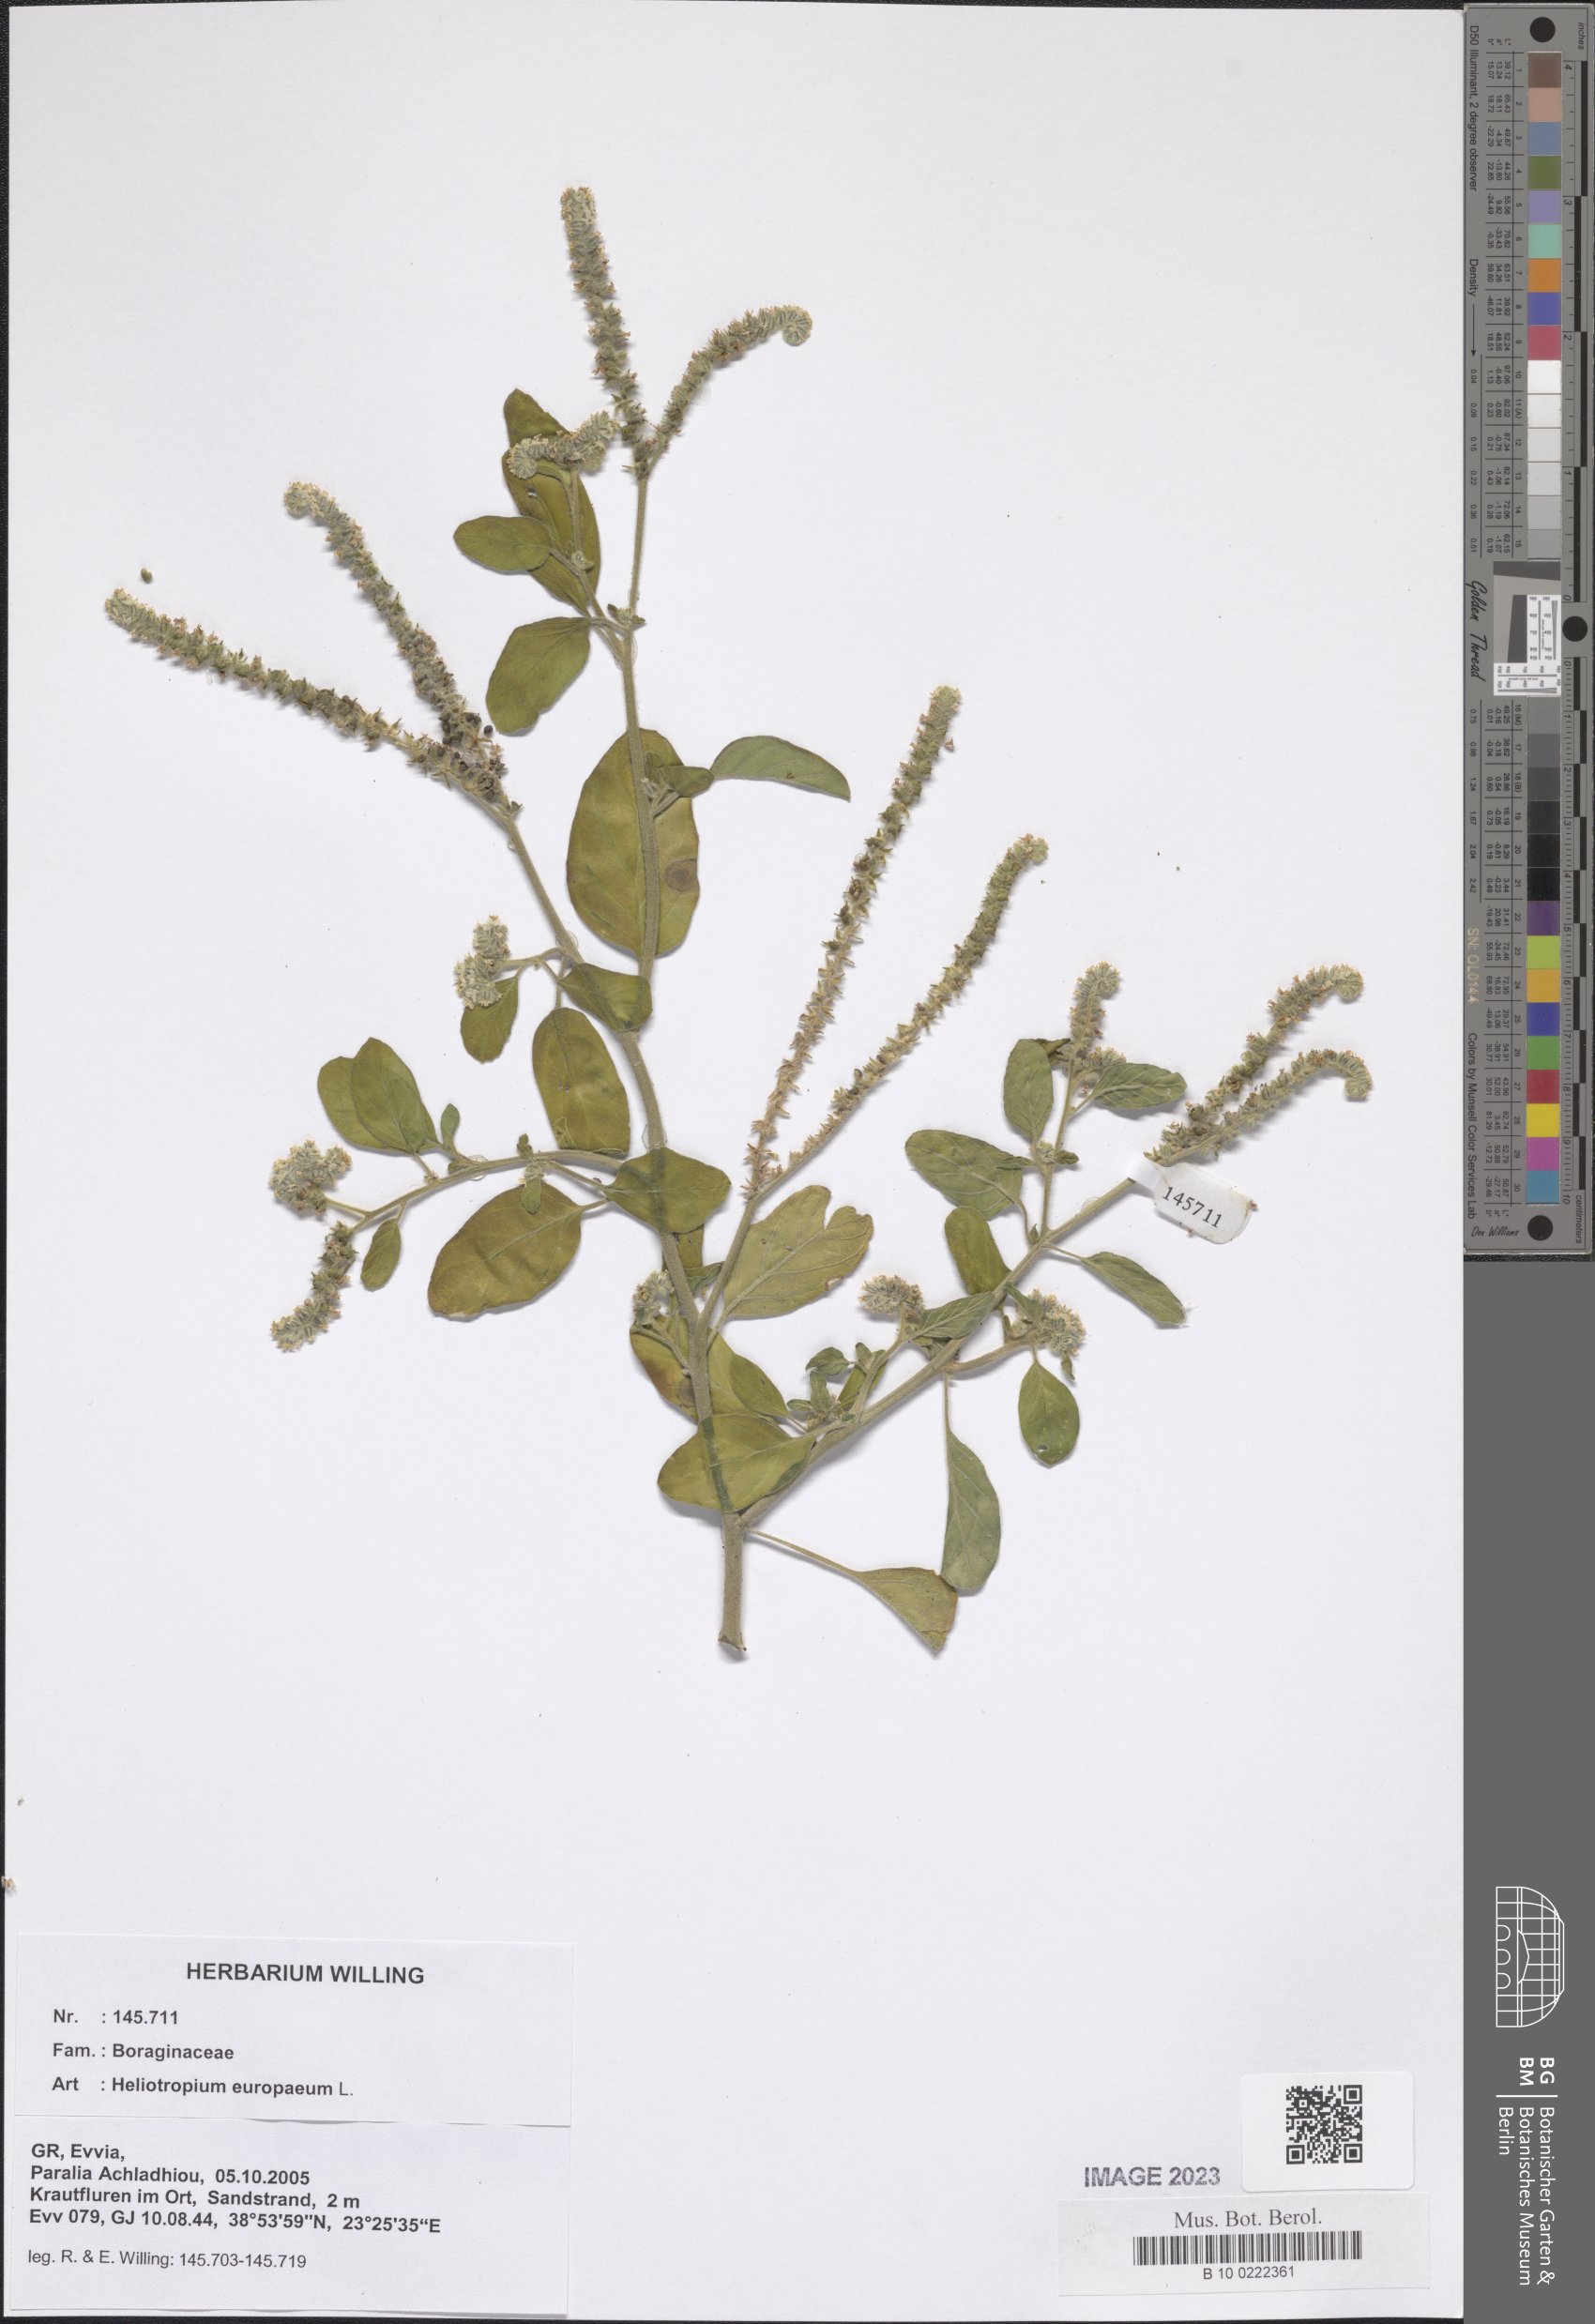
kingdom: Plantae
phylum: Tracheophyta
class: Magnoliopsida
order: Boraginales
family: Heliotropiaceae
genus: Heliotropium
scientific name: Heliotropium europaeum
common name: European heliotrope
